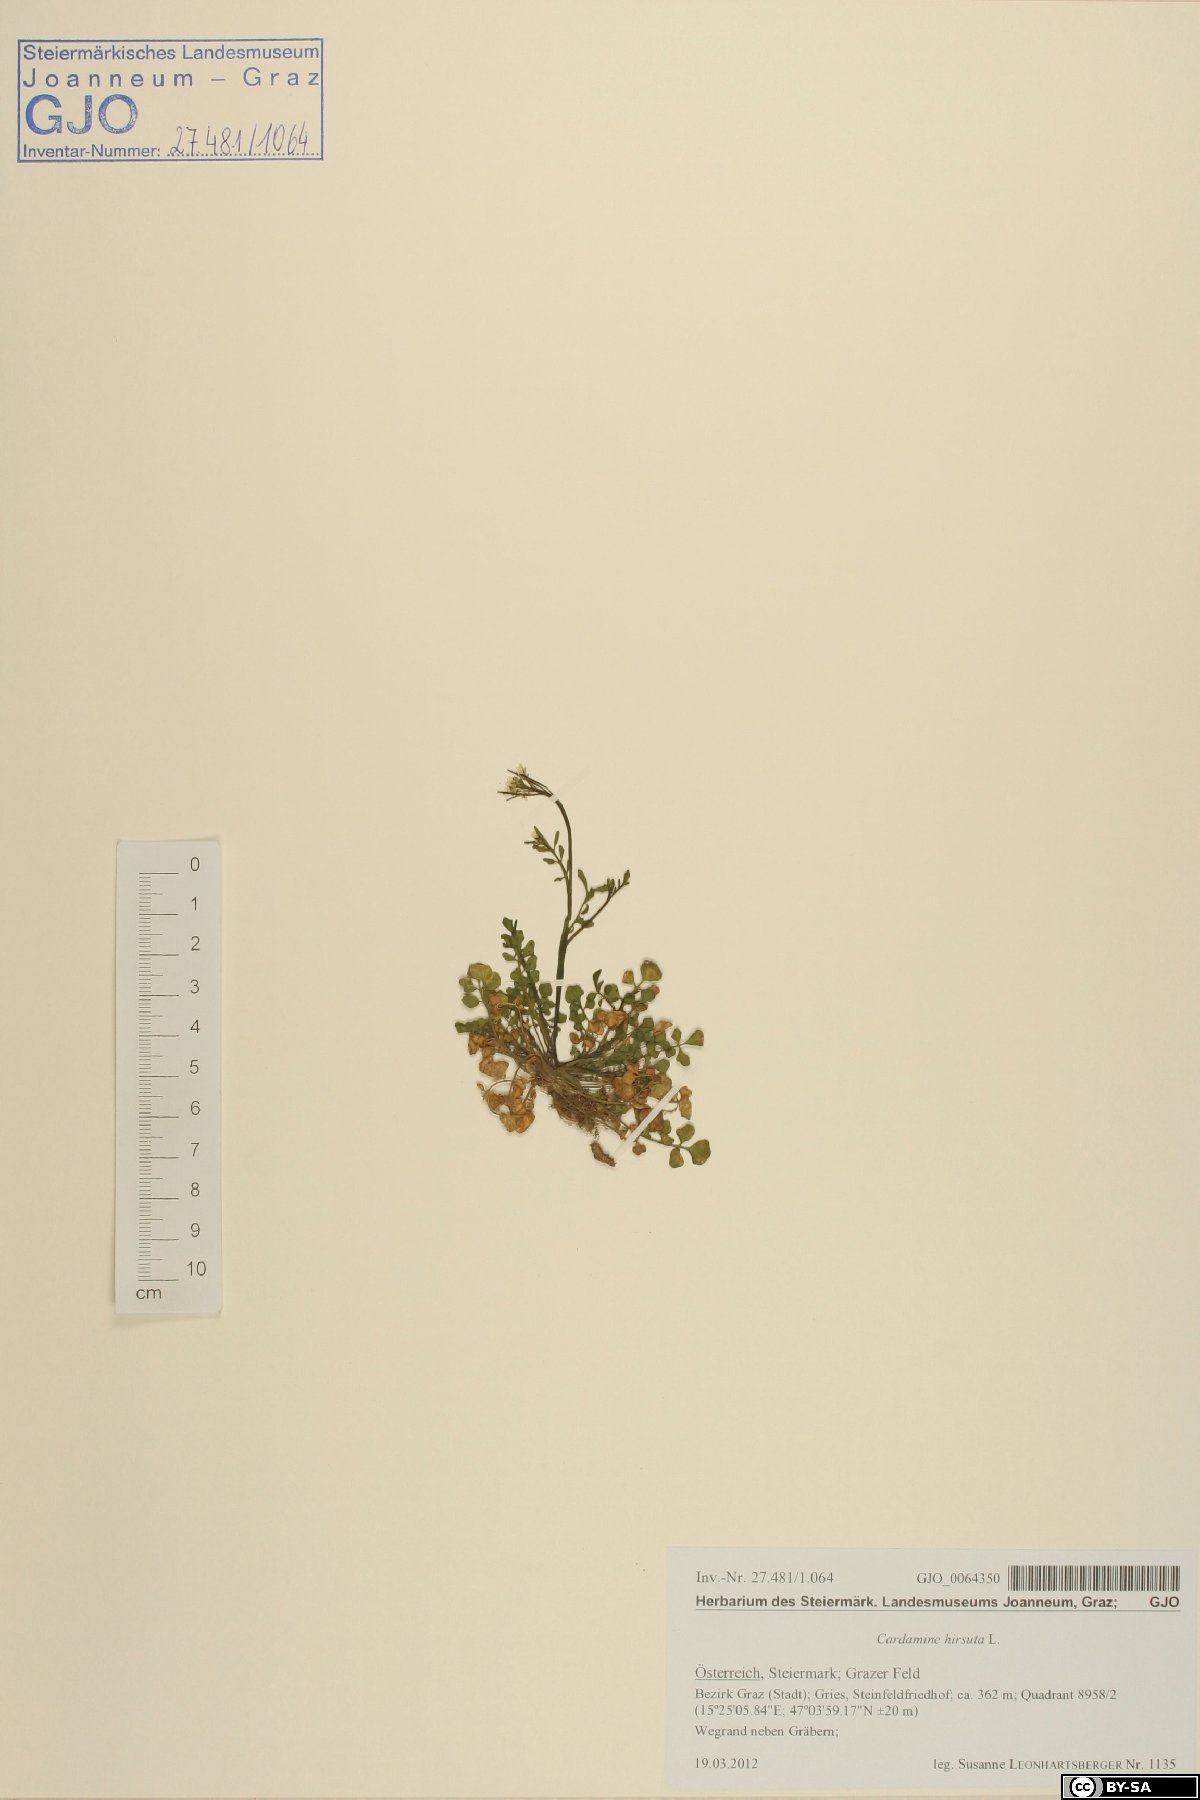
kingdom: Plantae
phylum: Tracheophyta
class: Magnoliopsida
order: Brassicales
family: Brassicaceae
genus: Cardamine
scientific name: Cardamine hirsuta
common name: Hairy bittercress
